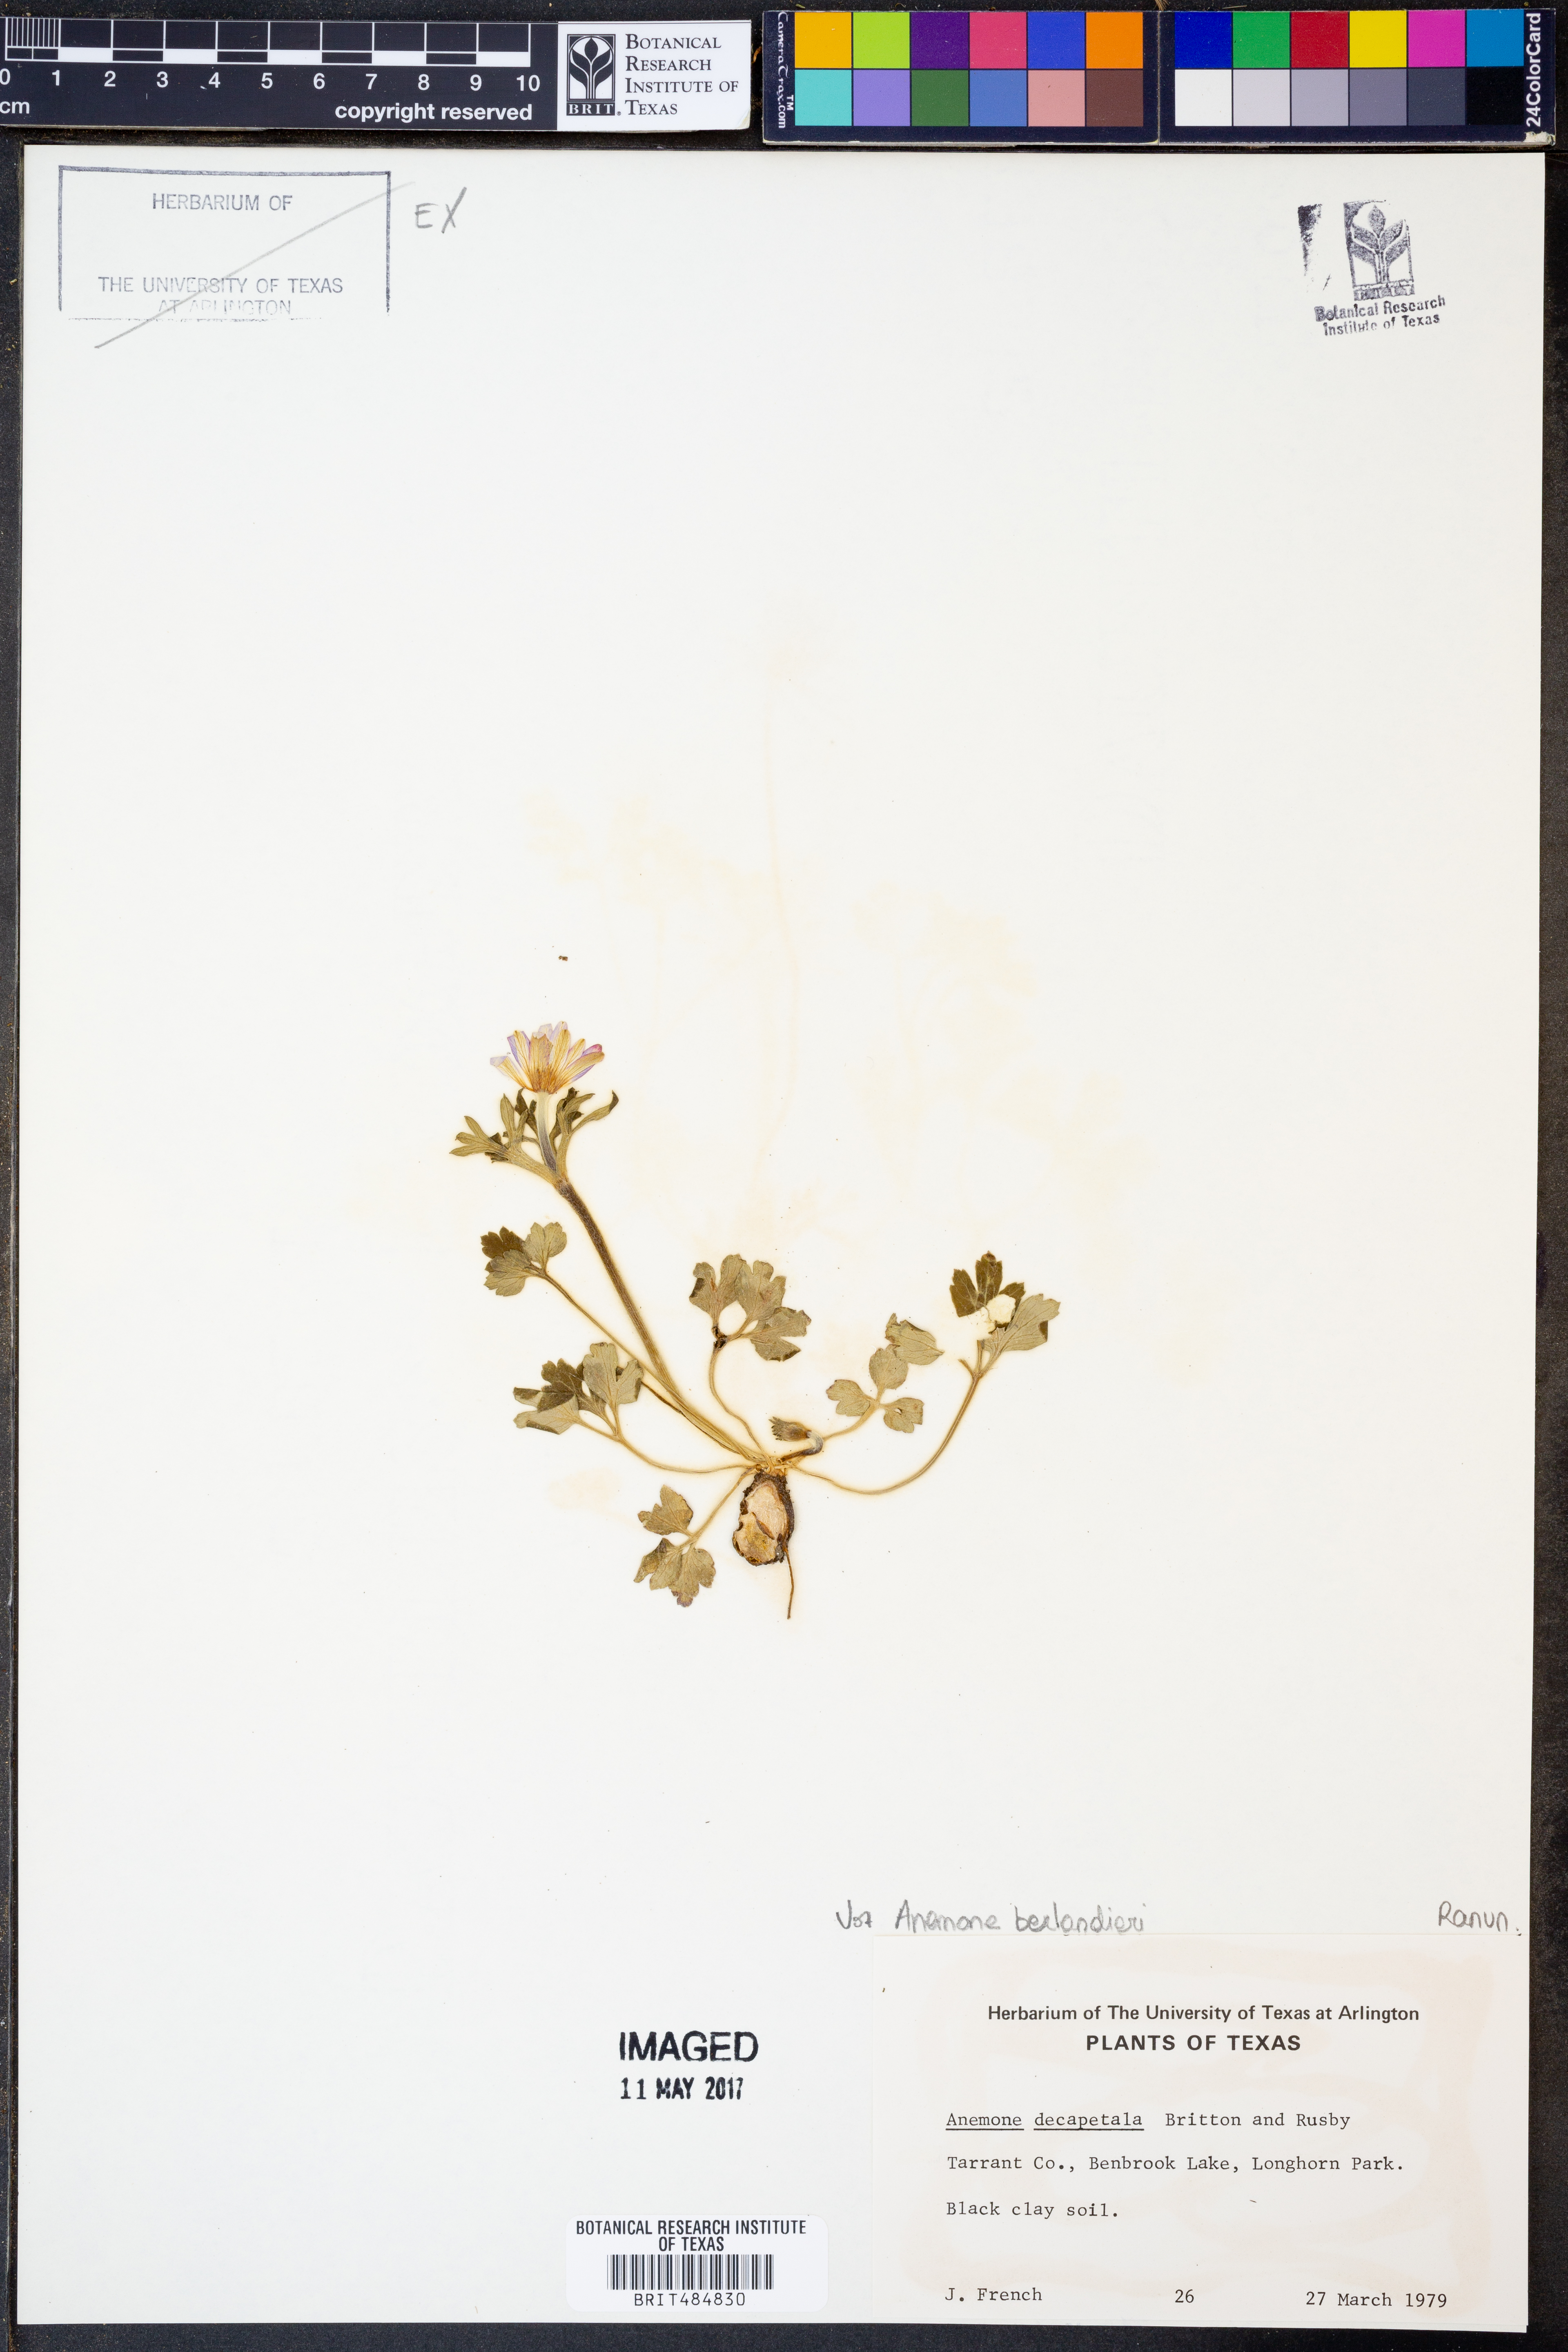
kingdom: Plantae
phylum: Tracheophyta
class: Magnoliopsida
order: Ranunculales
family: Ranunculaceae
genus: Anemone
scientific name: Anemone berlandieri
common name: Ten-petal anemone
